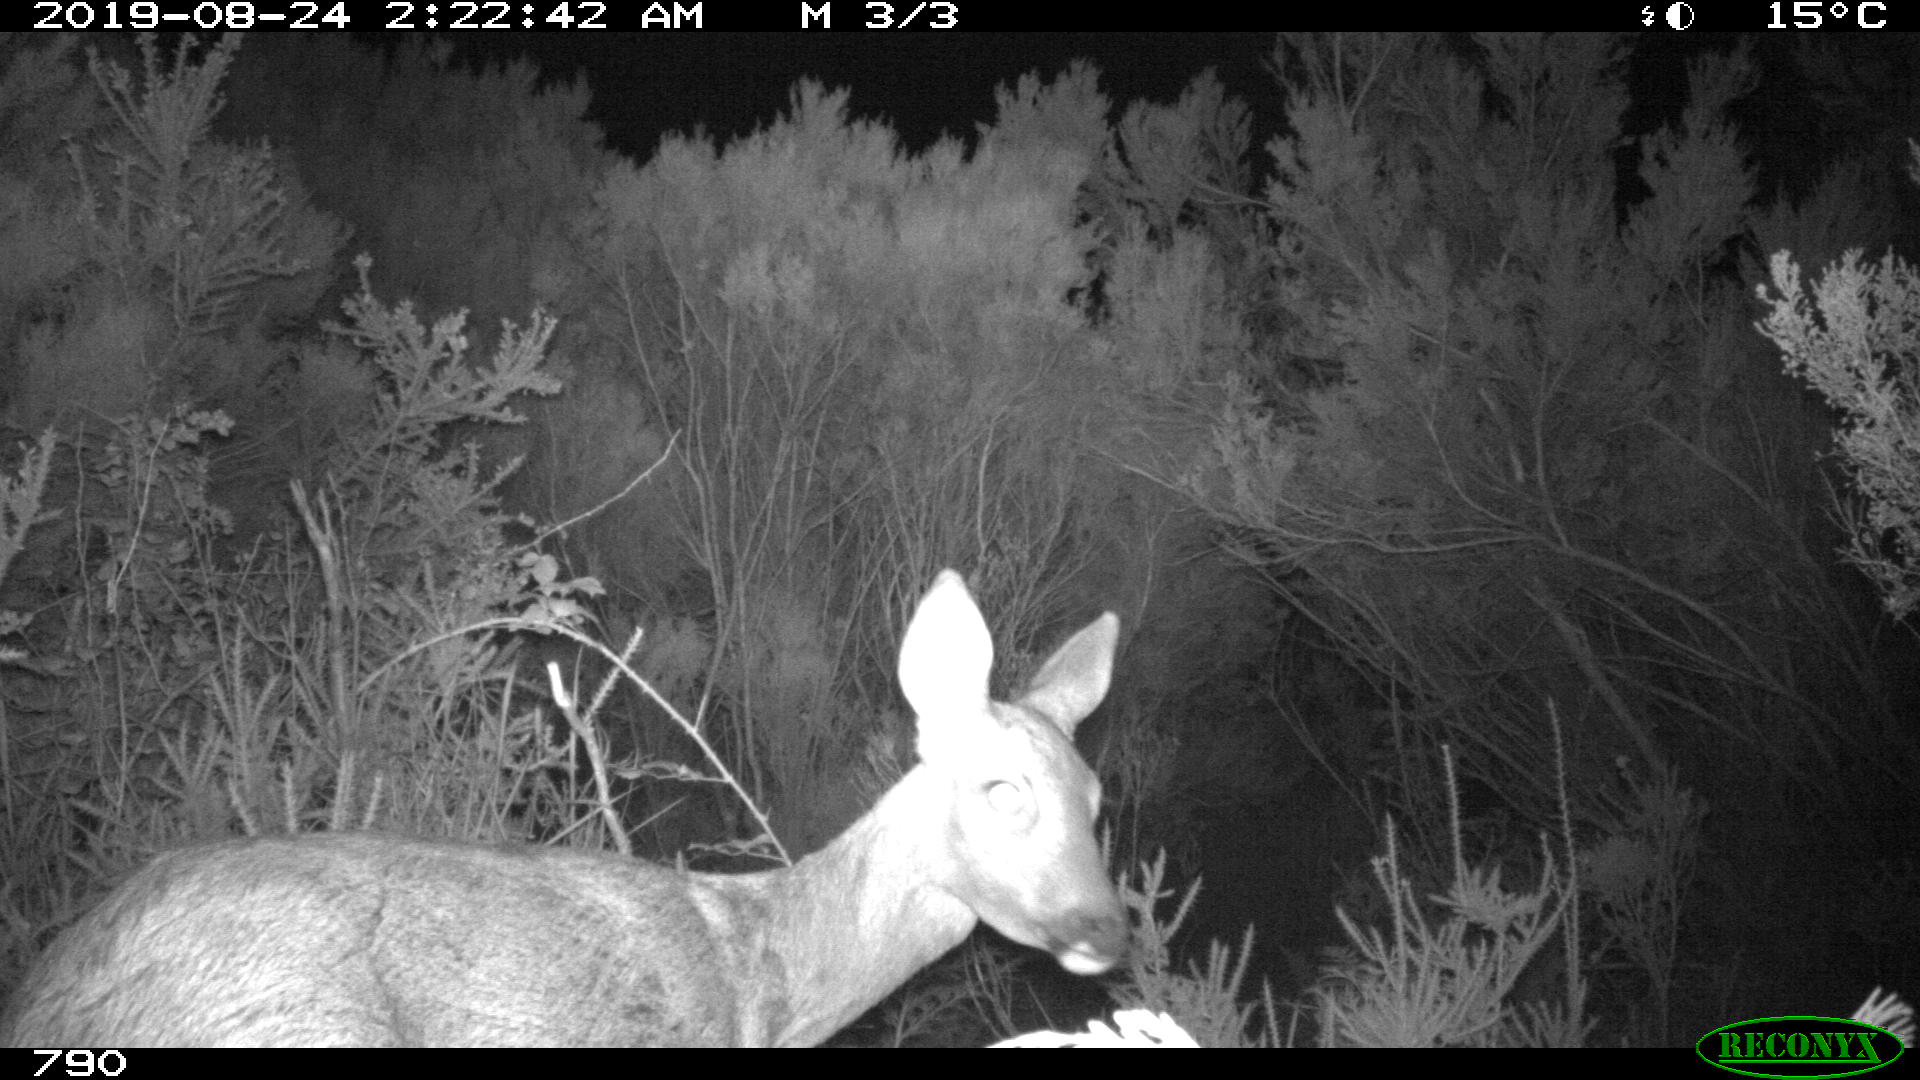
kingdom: Animalia
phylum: Chordata
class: Mammalia
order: Artiodactyla
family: Cervidae
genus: Capreolus
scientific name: Capreolus capreolus
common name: Western roe deer
